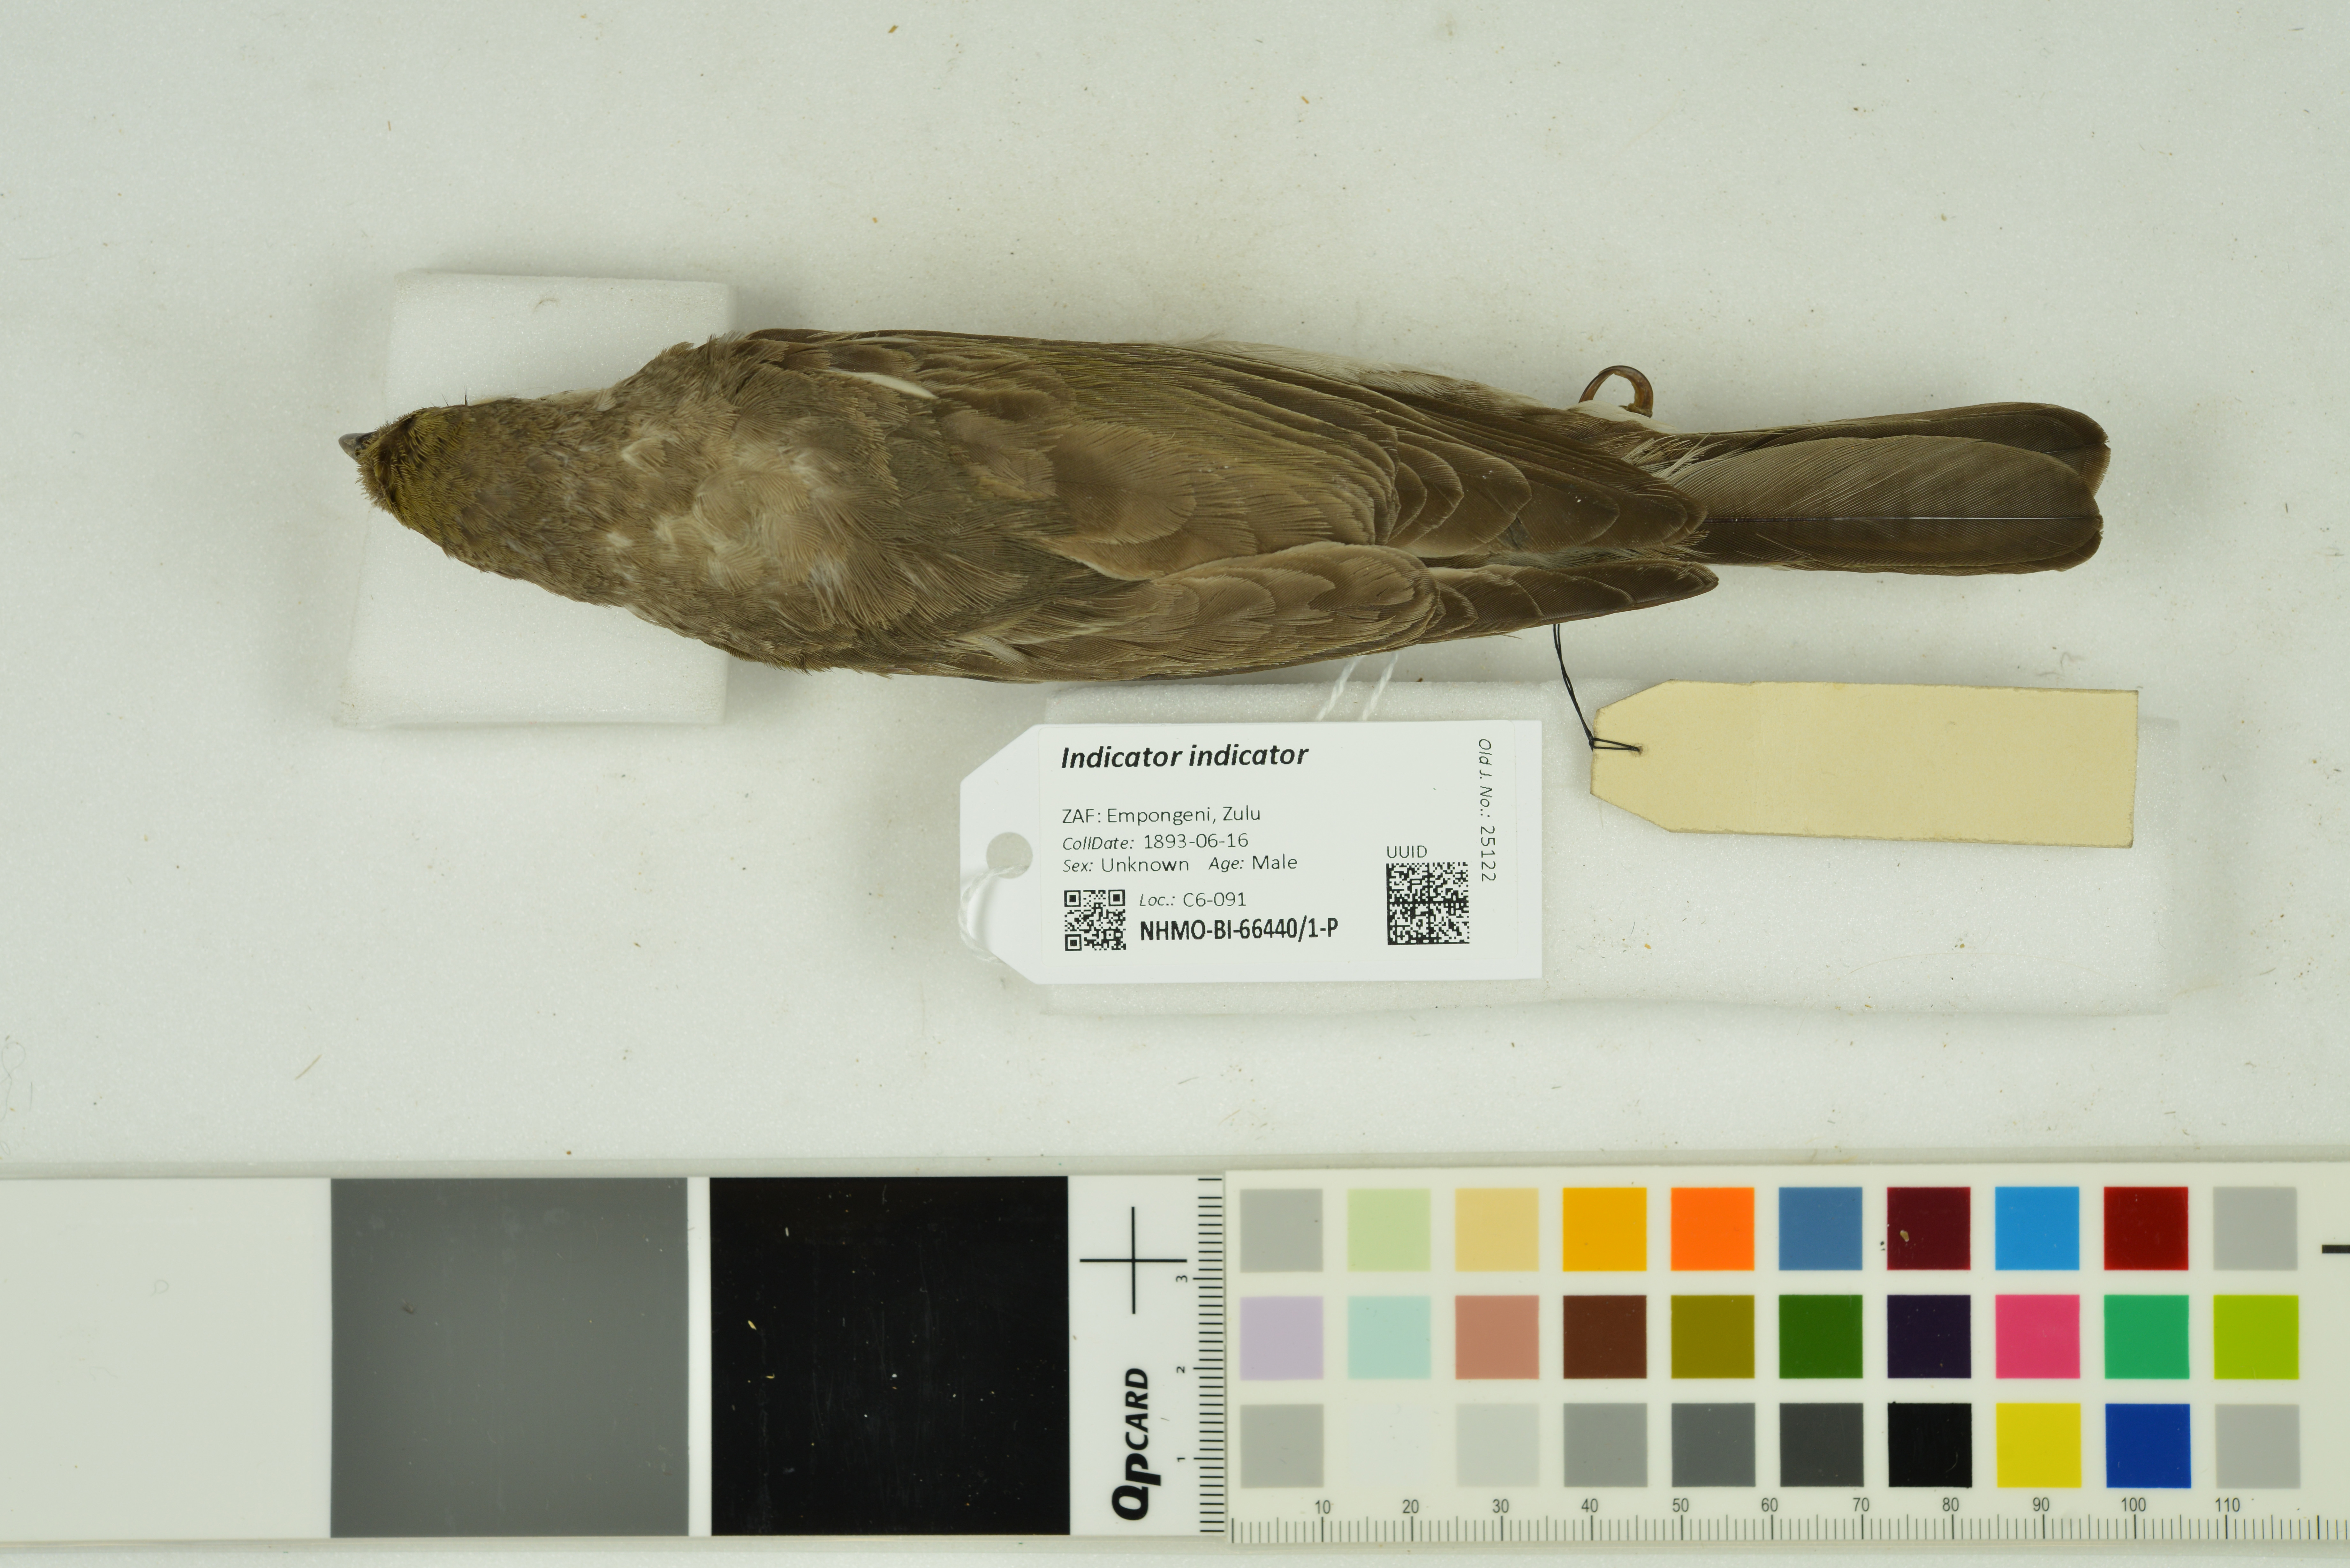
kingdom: Animalia
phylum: Chordata
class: Aves
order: Piciformes
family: Indicatoridae
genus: Indicator
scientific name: Indicator indicator
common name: Greater honeyguide
